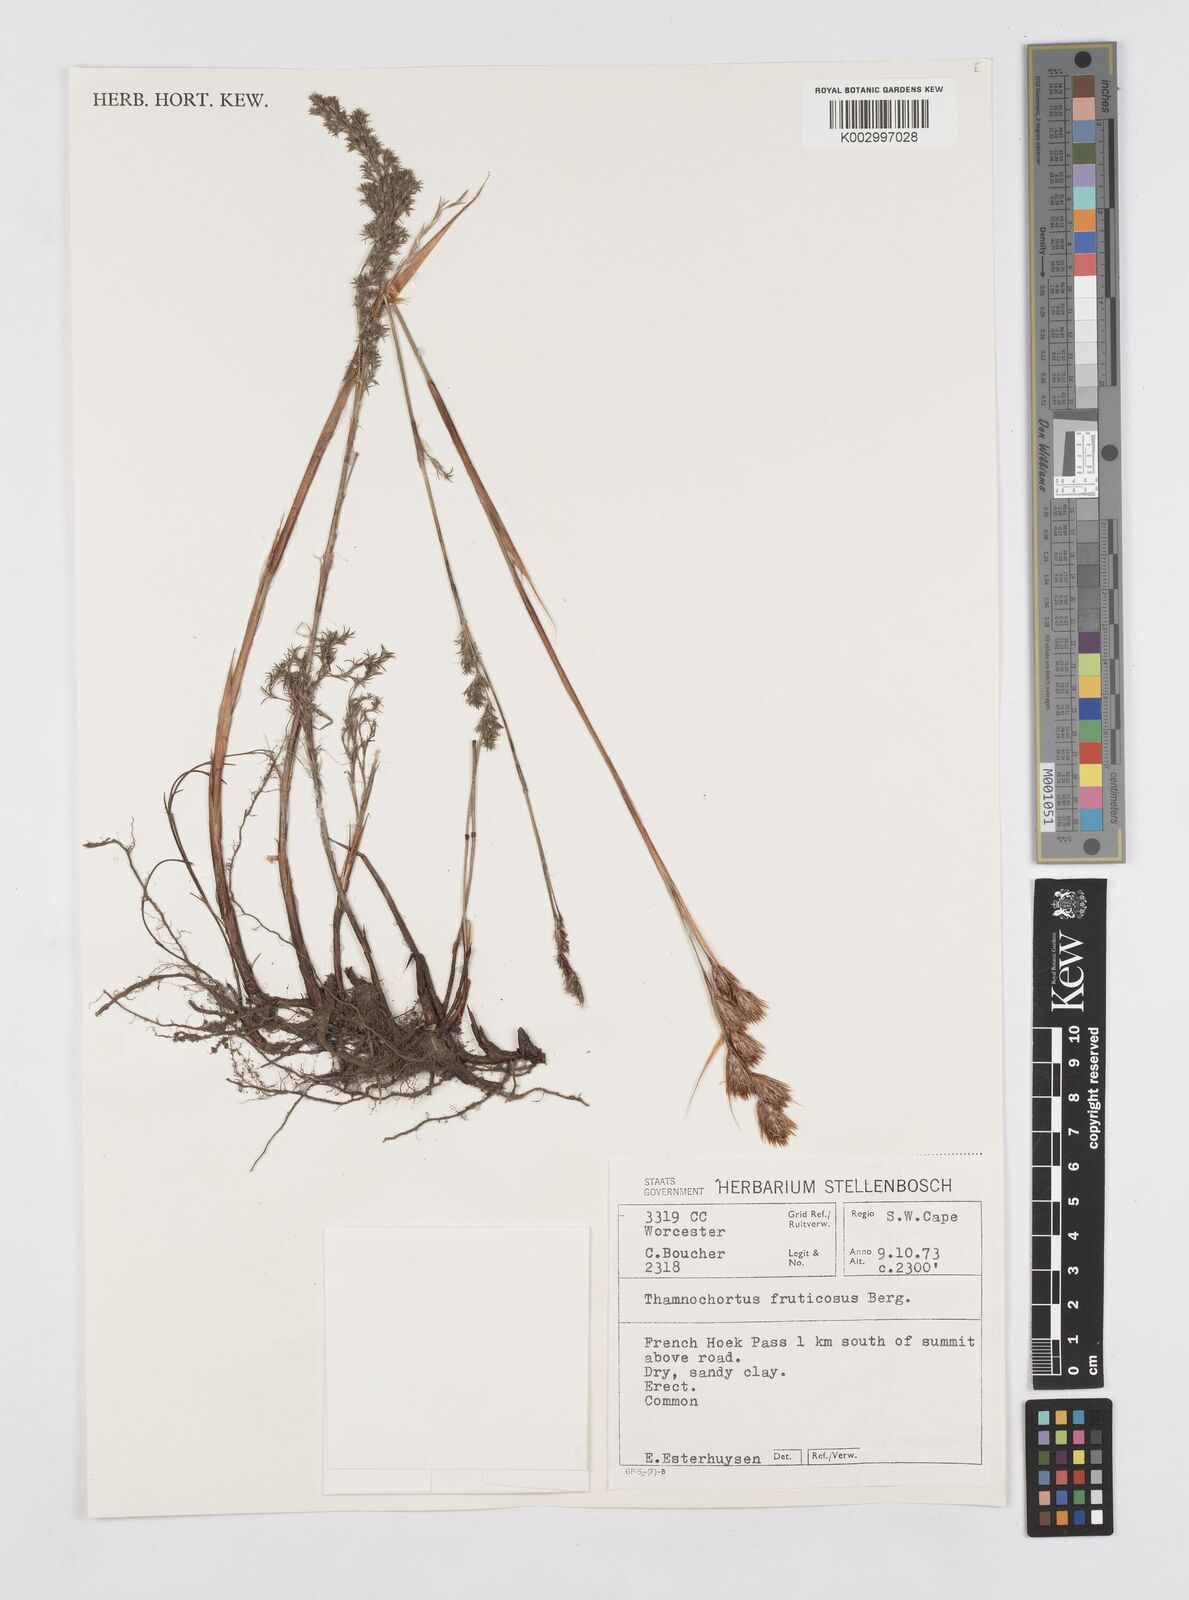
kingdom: Plantae
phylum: Tracheophyta
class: Liliopsida
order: Poales
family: Restionaceae
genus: Thamnochortus
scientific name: Thamnochortus fruticosus
